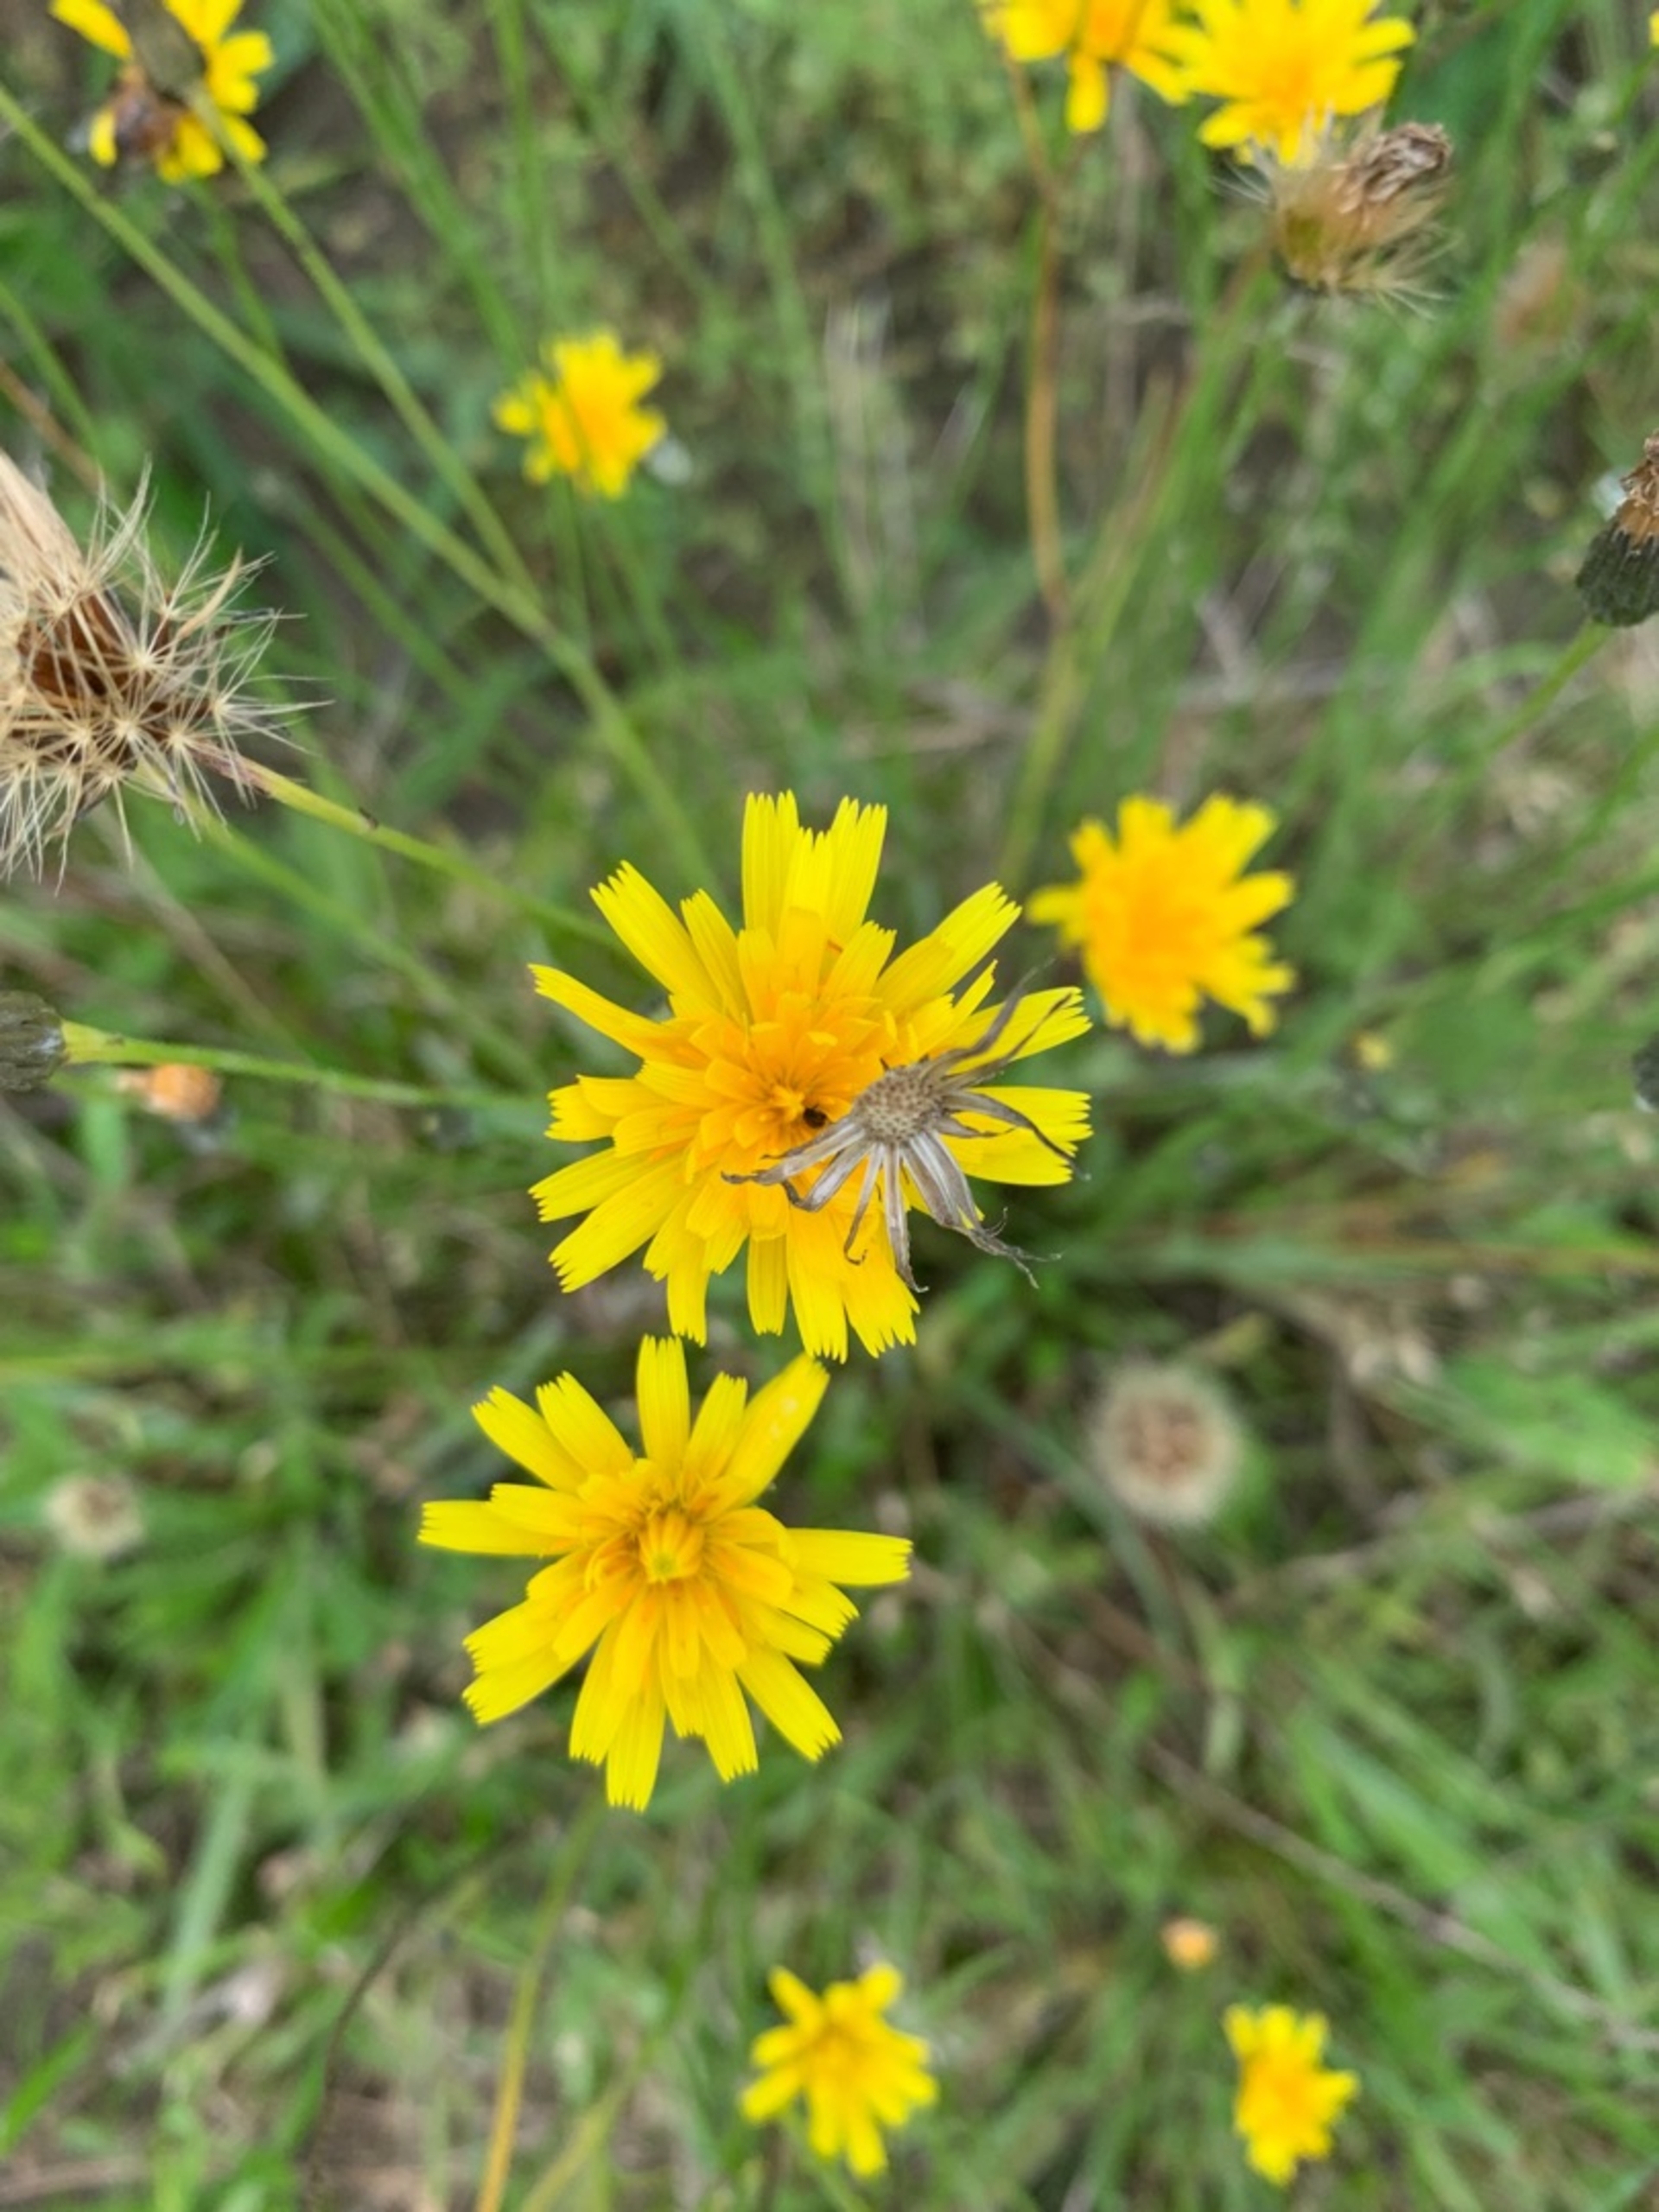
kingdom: Plantae
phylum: Tracheophyta
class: Magnoliopsida
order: Asterales
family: Asteraceae
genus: Scorzoneroides
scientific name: Scorzoneroides autumnalis
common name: Høst-borst
